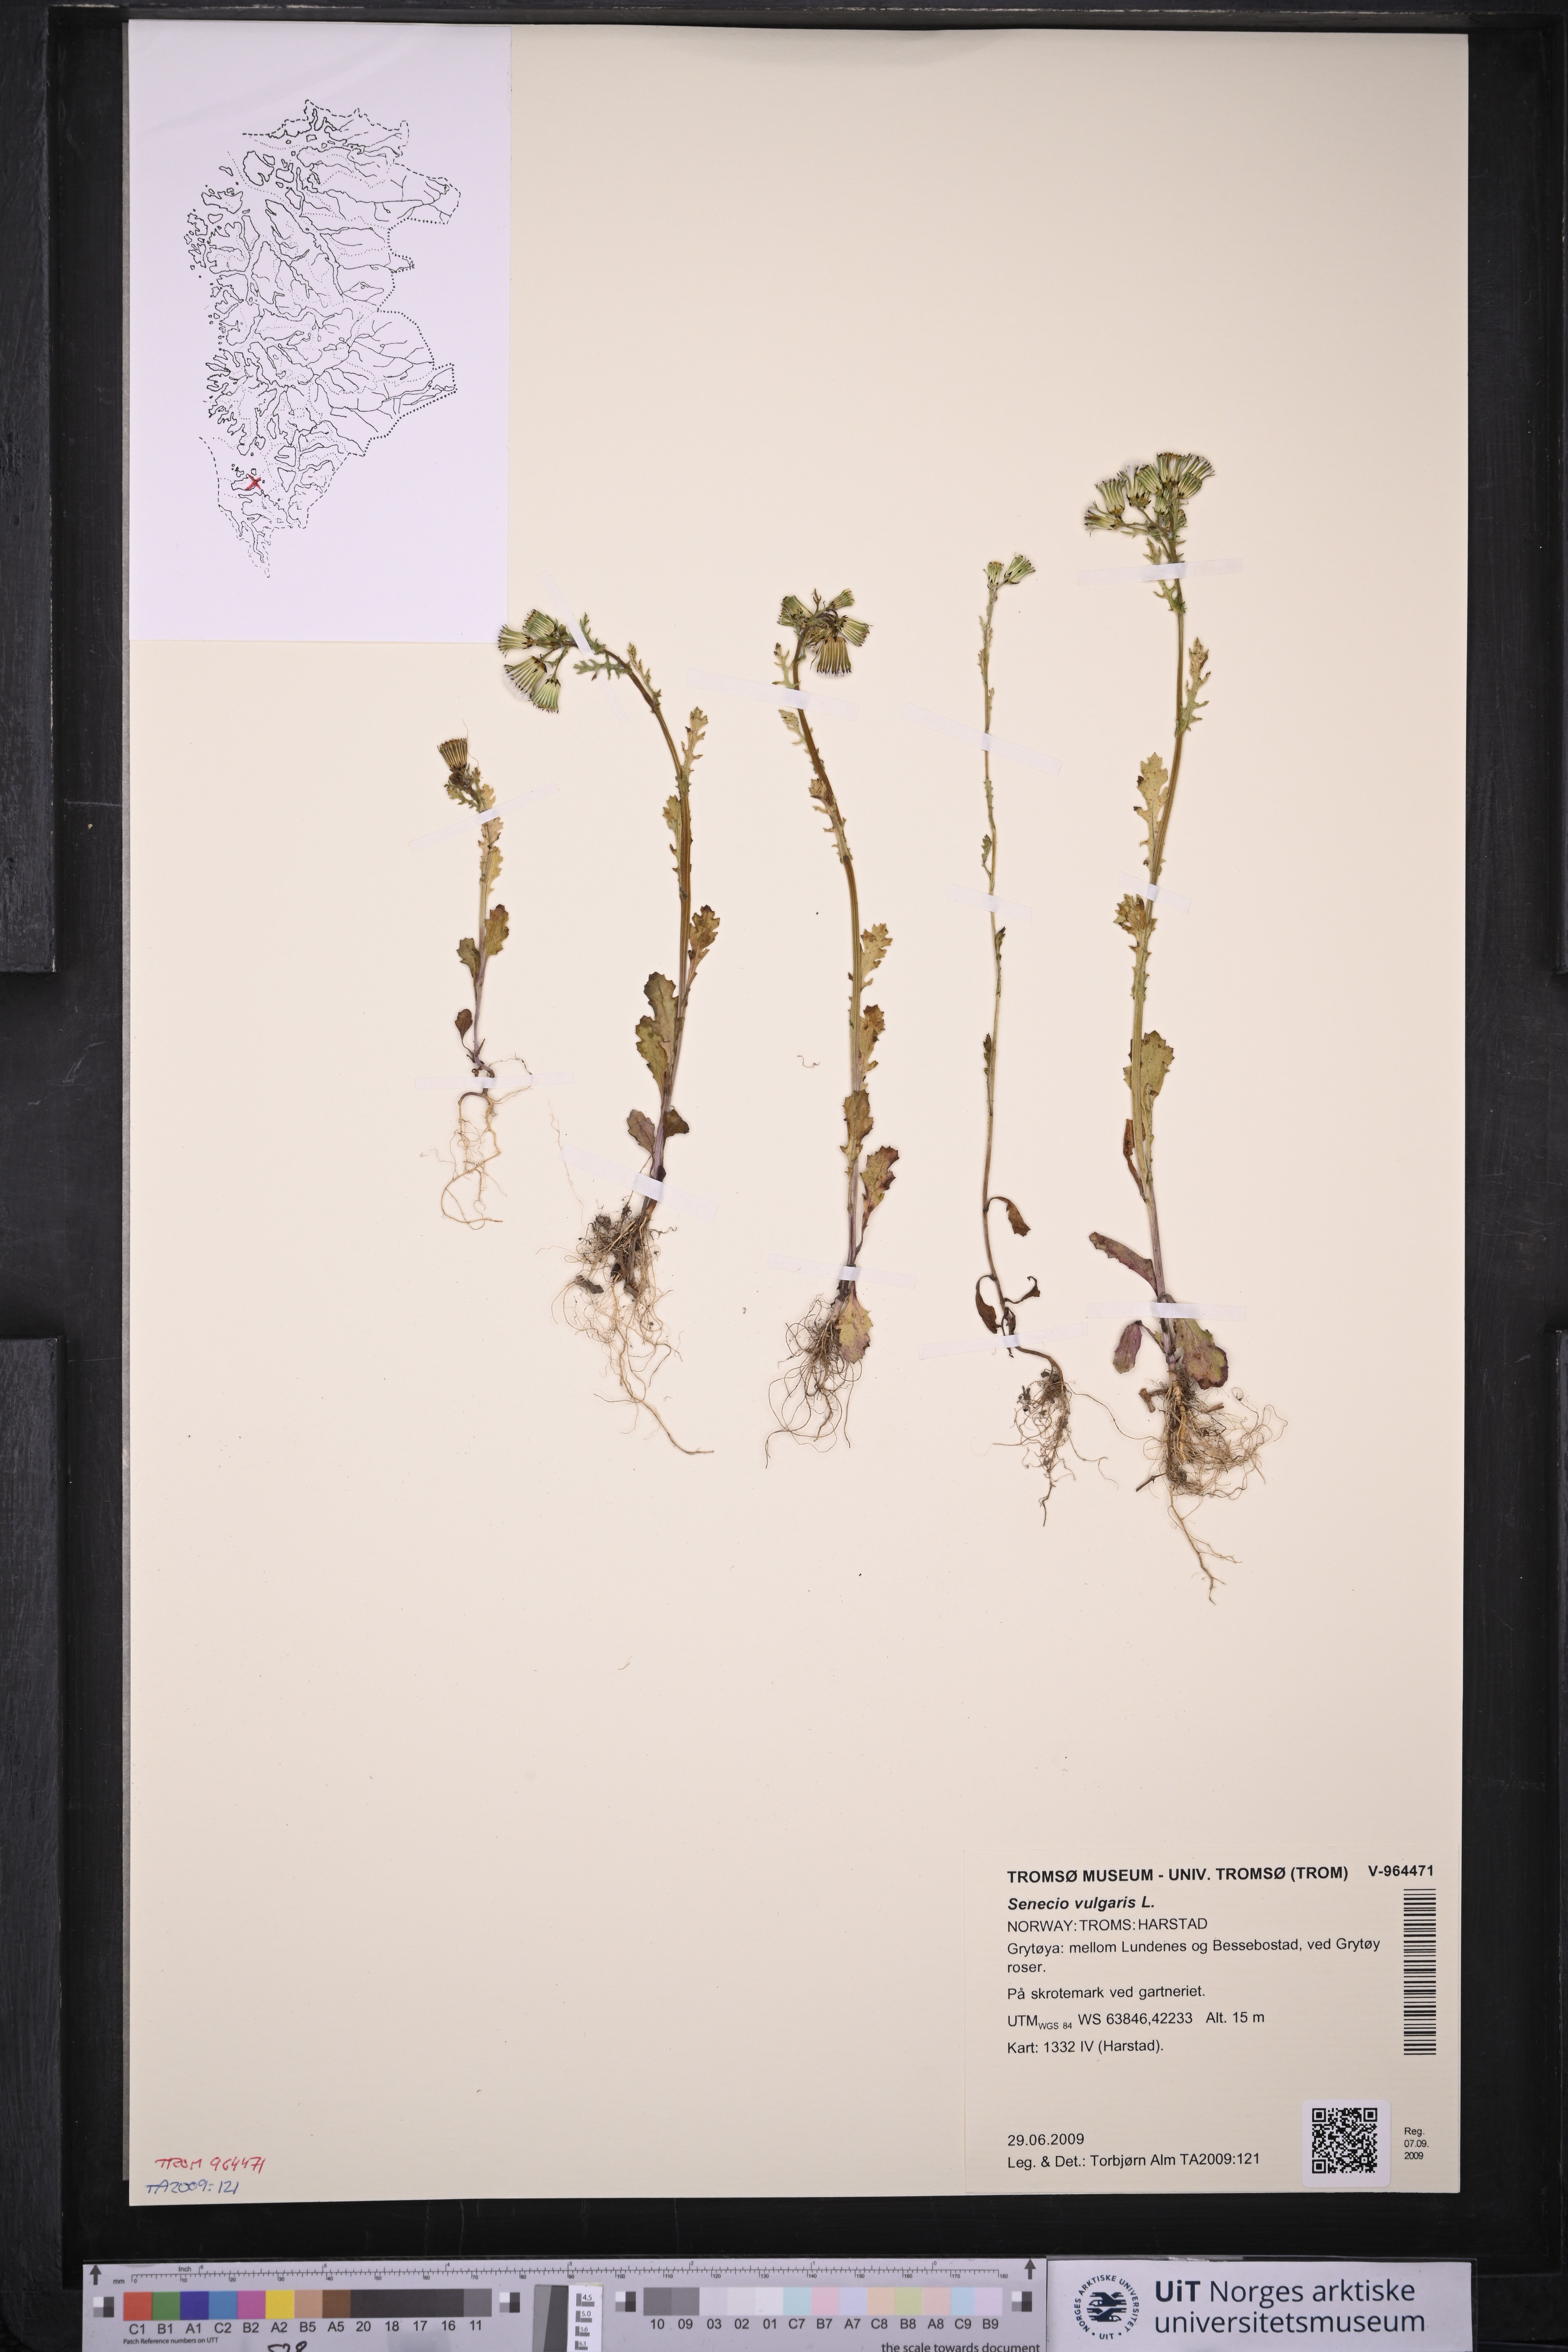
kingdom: Plantae
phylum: Tracheophyta
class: Magnoliopsida
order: Asterales
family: Asteraceae
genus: Senecio
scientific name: Senecio vulgaris
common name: Old-man-in-the-spring
